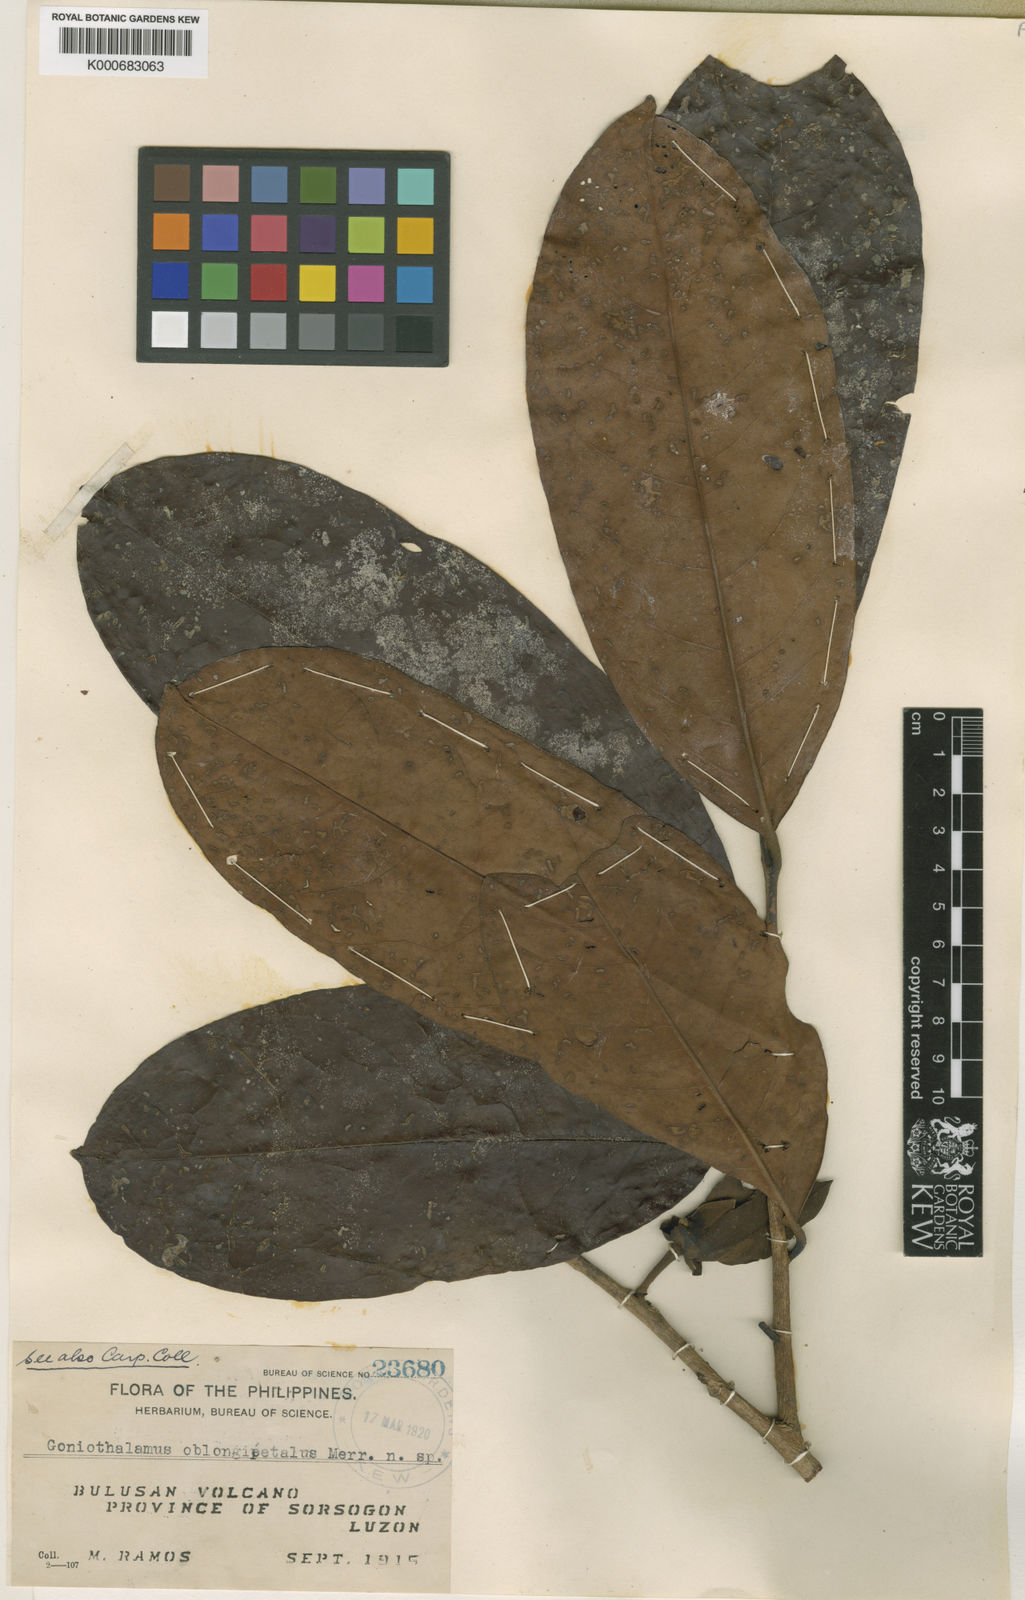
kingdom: Plantae
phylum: Tracheophyta
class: Magnoliopsida
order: Magnoliales
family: Annonaceae
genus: Goniothalamus
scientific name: Goniothalamus
